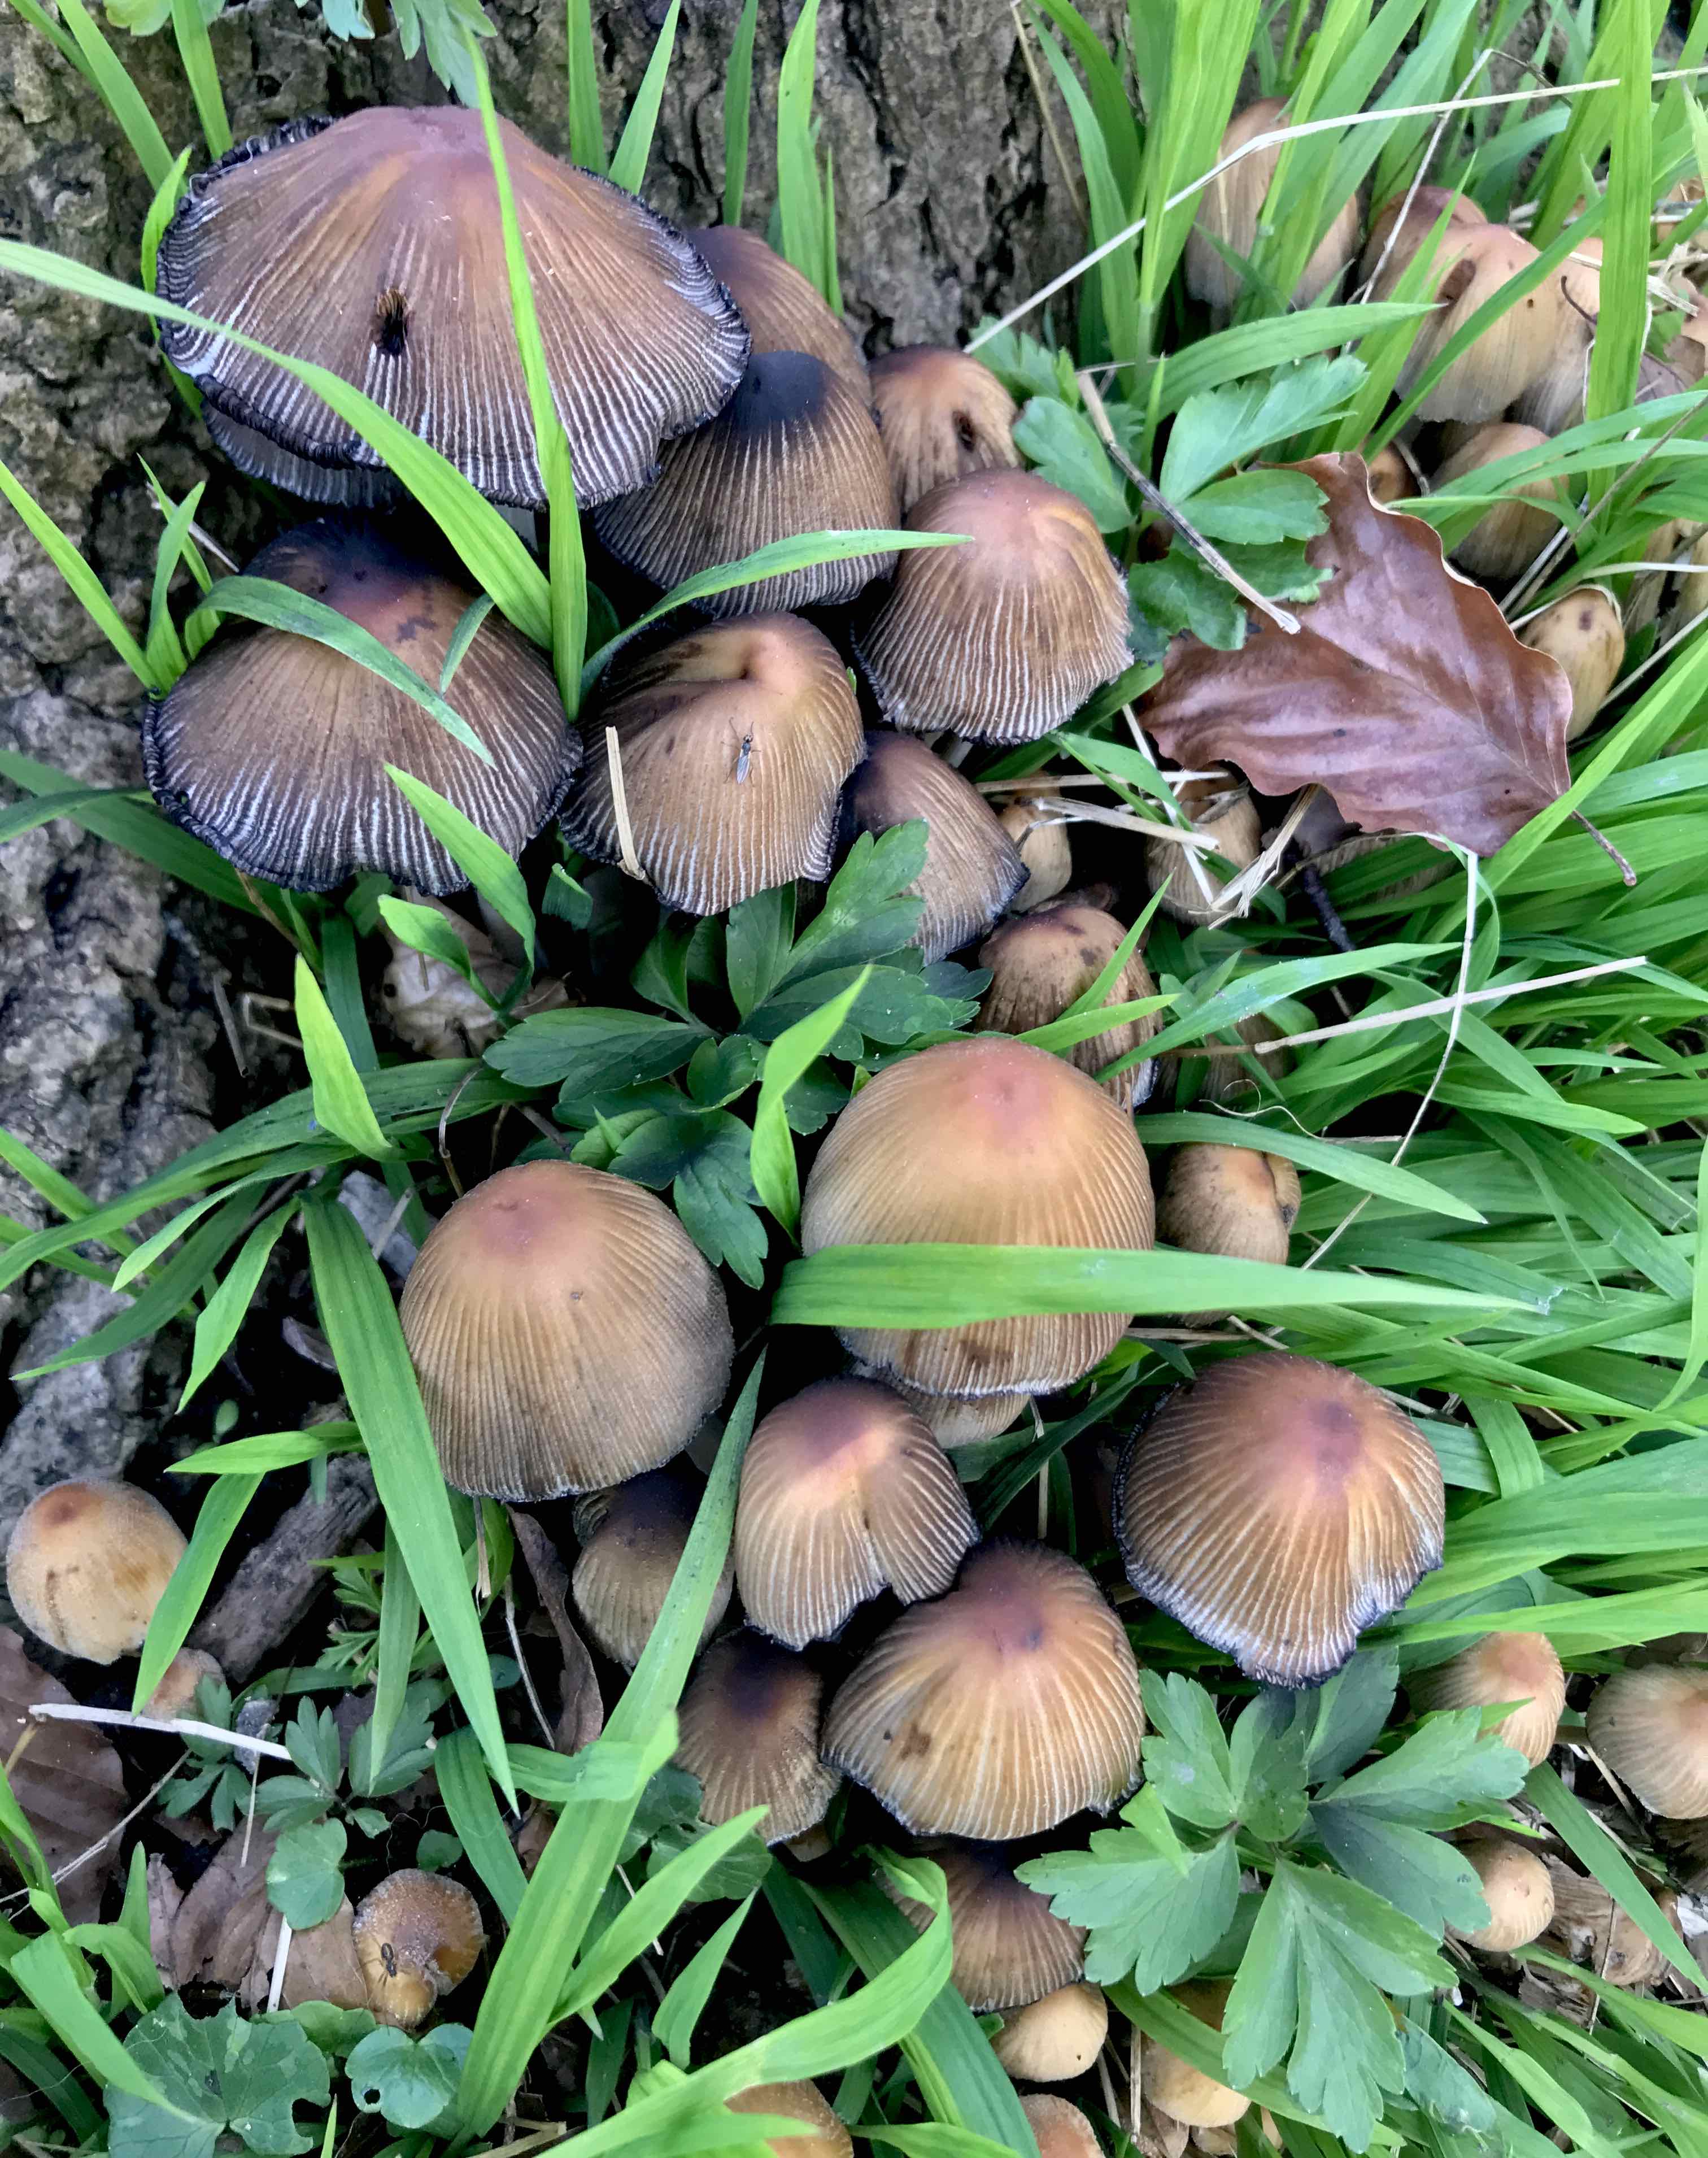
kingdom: Fungi
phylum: Basidiomycota
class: Agaricomycetes
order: Agaricales
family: Psathyrellaceae
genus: Coprinellus
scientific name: Coprinellus micaceus
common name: glimmer-blækhat
